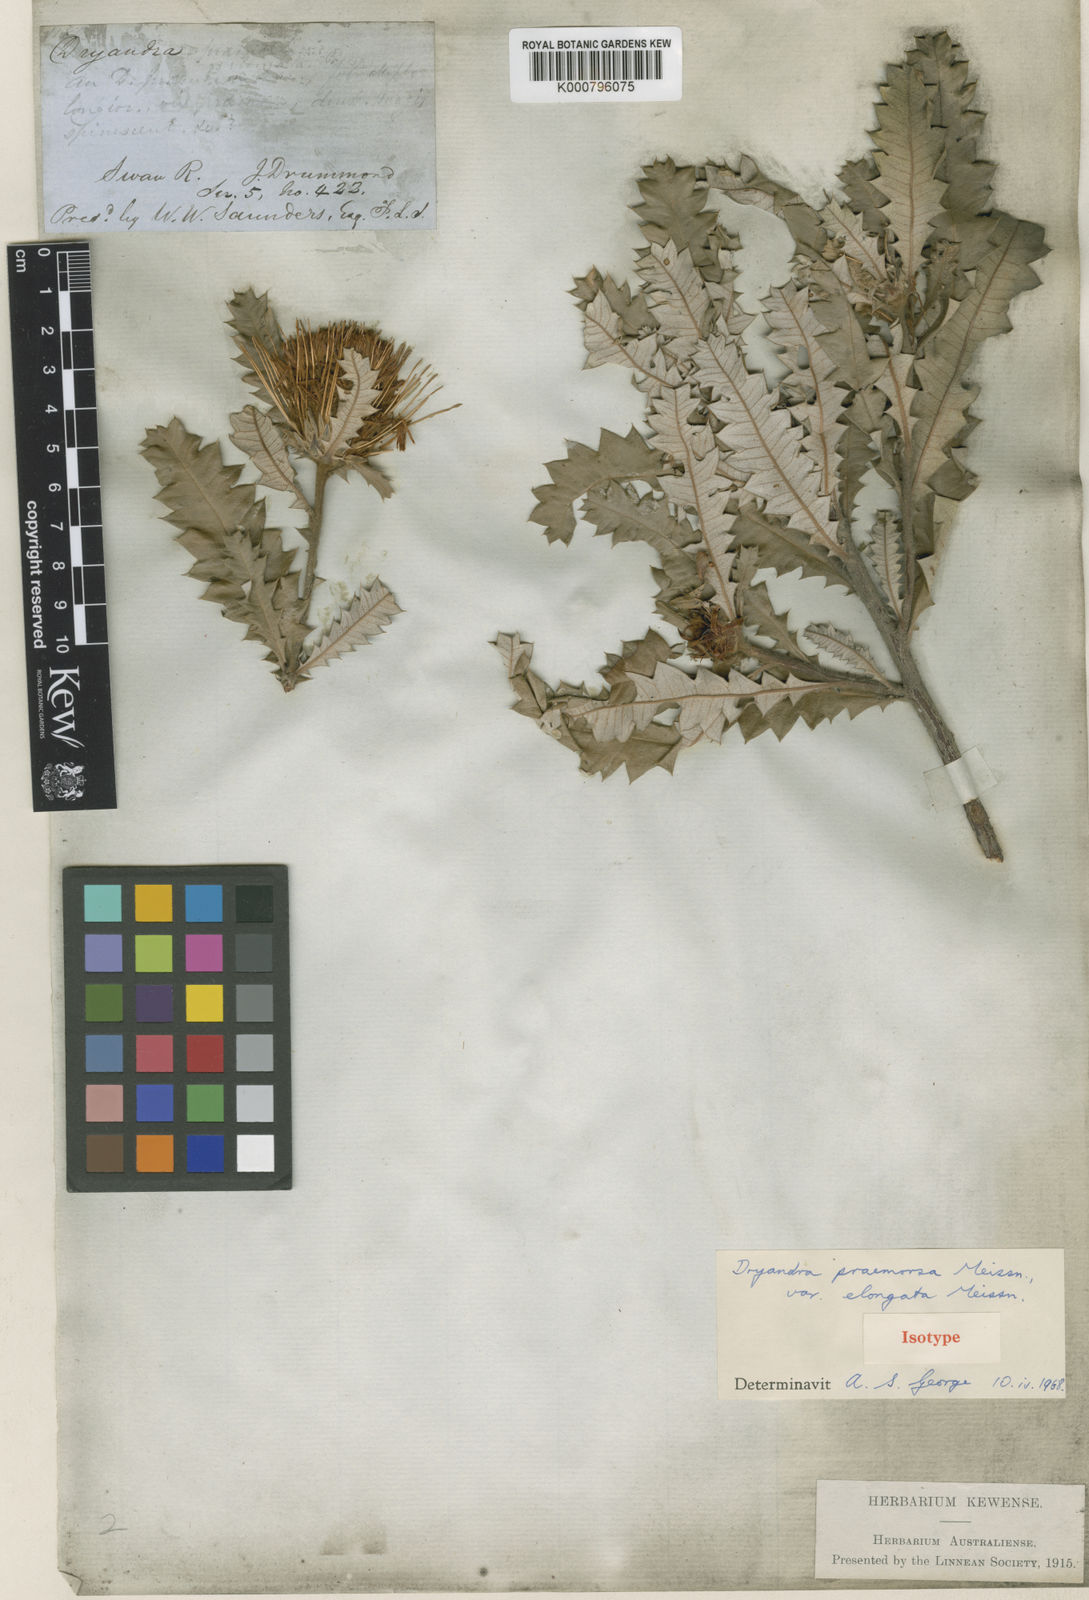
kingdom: Plantae
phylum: Tracheophyta
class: Magnoliopsida
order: Proteales
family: Proteaceae
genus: Banksia
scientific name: Banksia undata
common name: Cut-leaf dryandra
